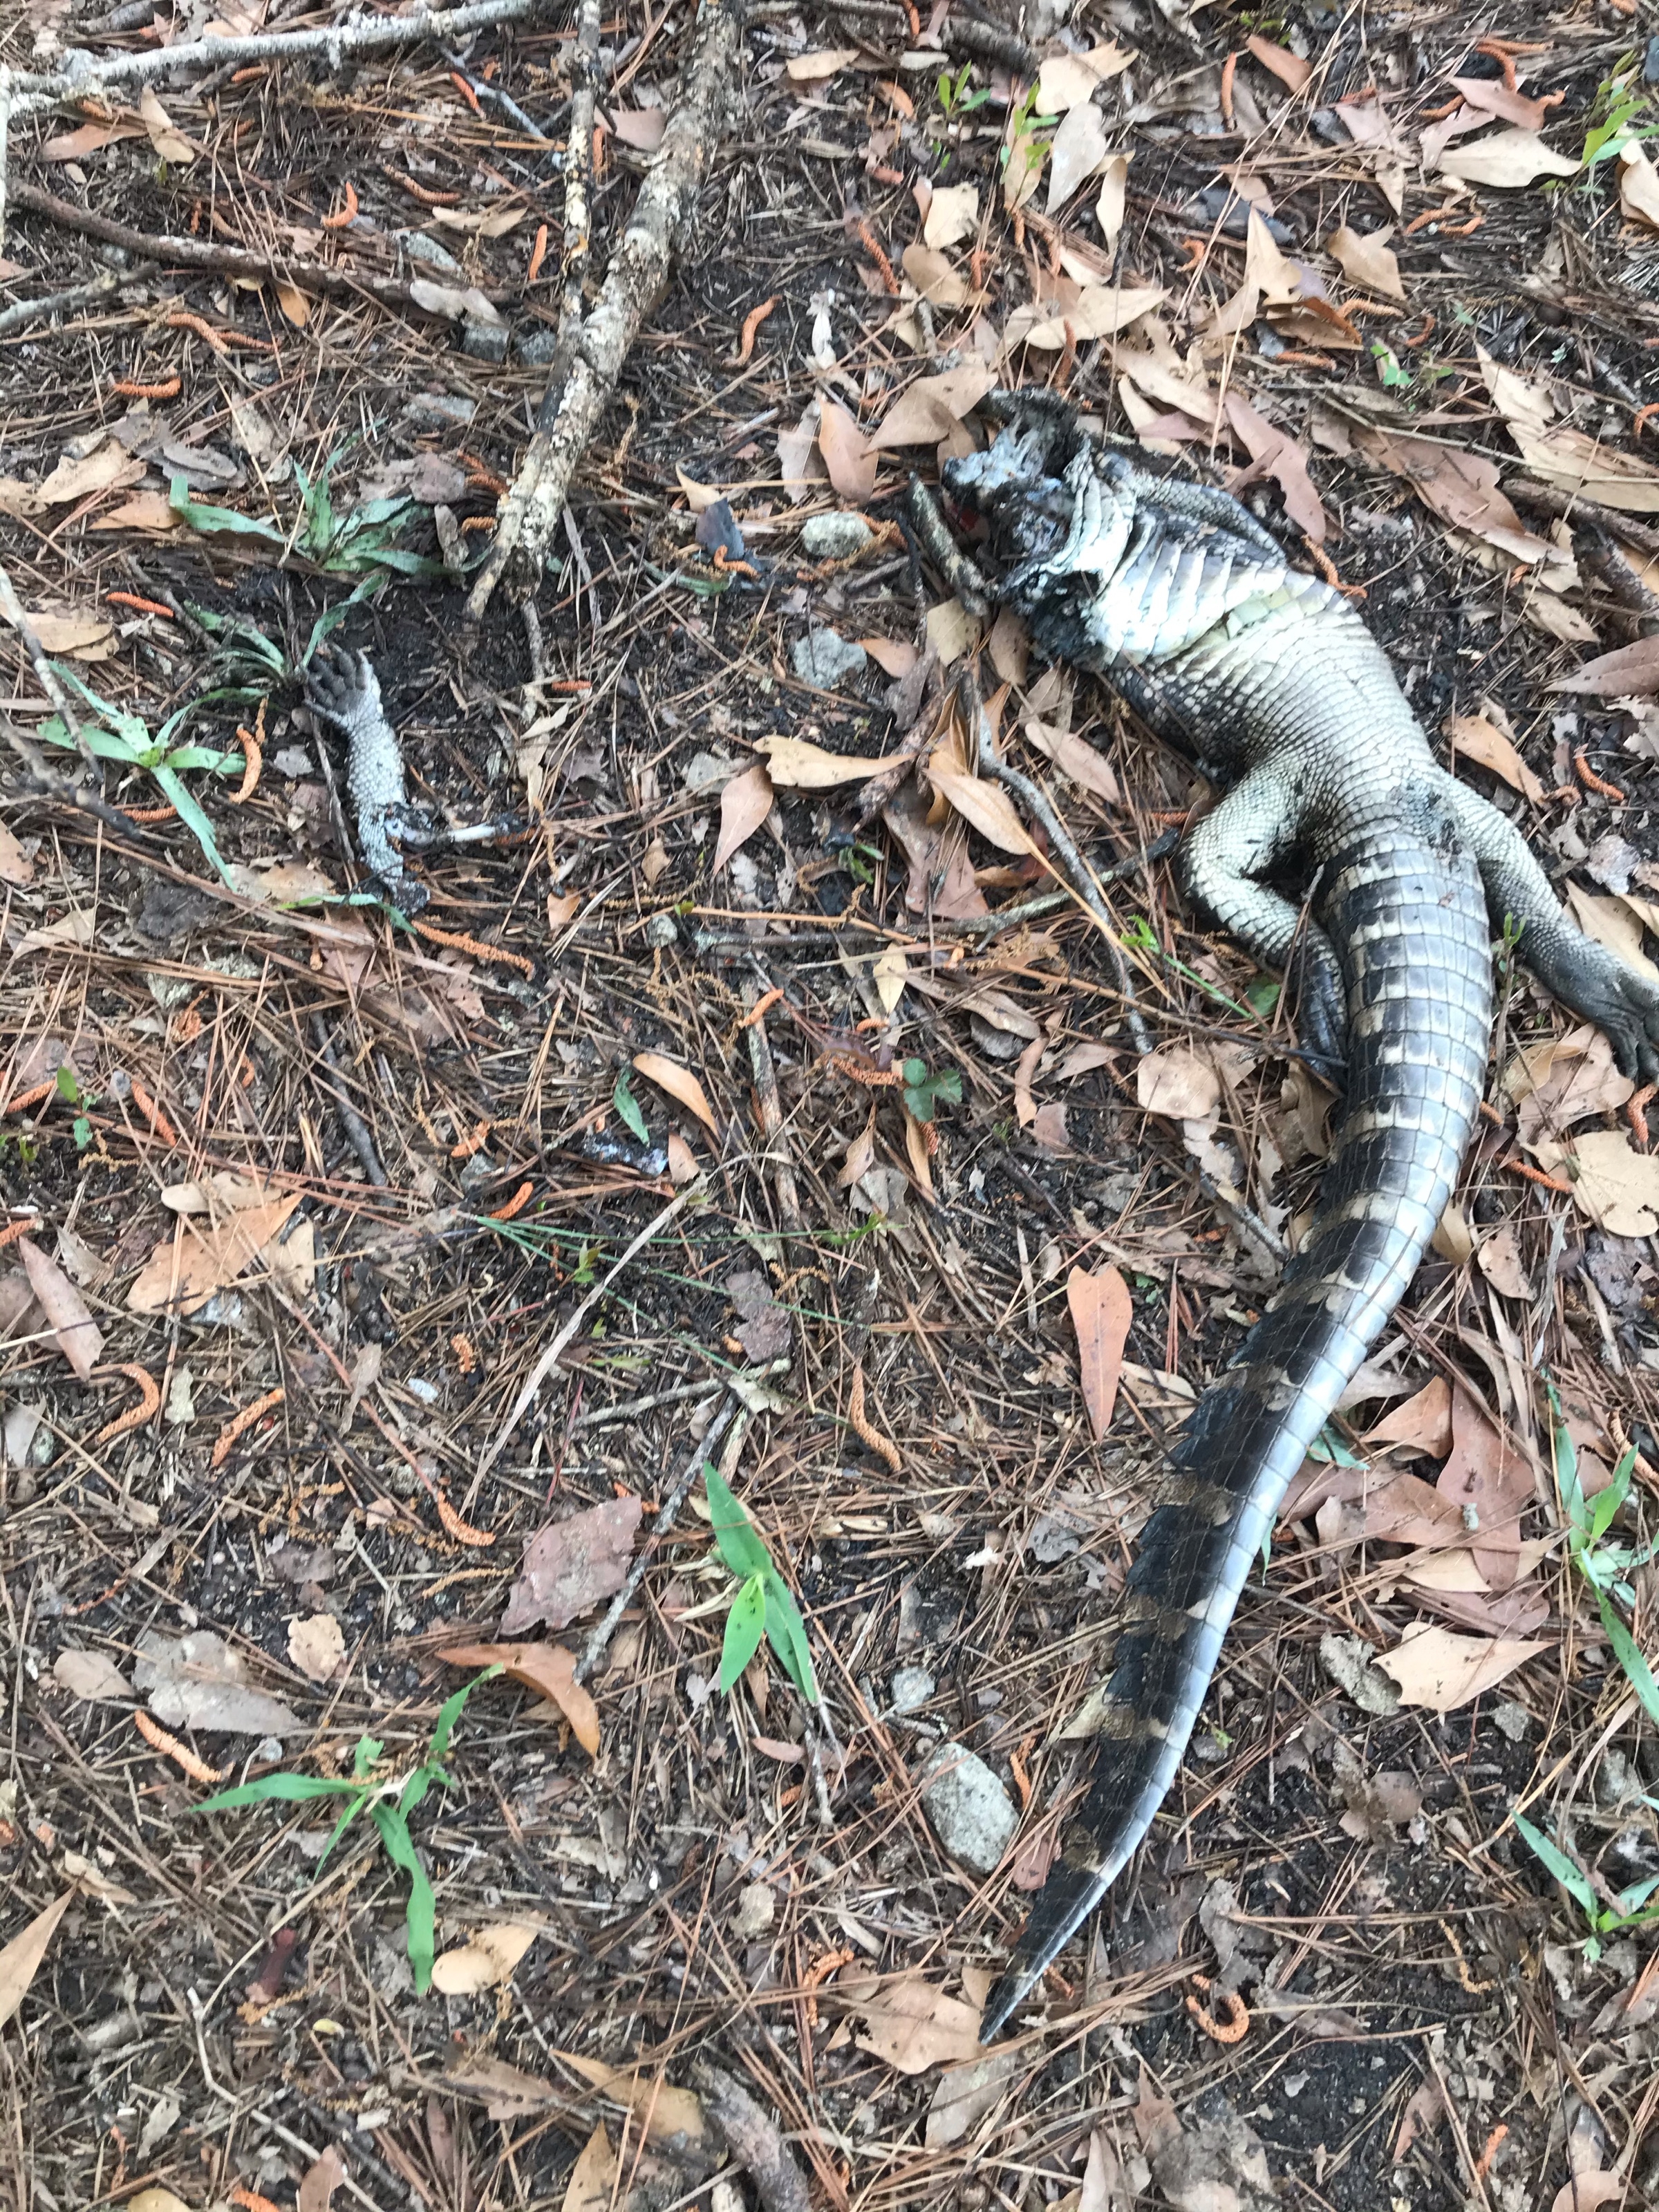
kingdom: Animalia
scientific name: Animalia
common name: NA
